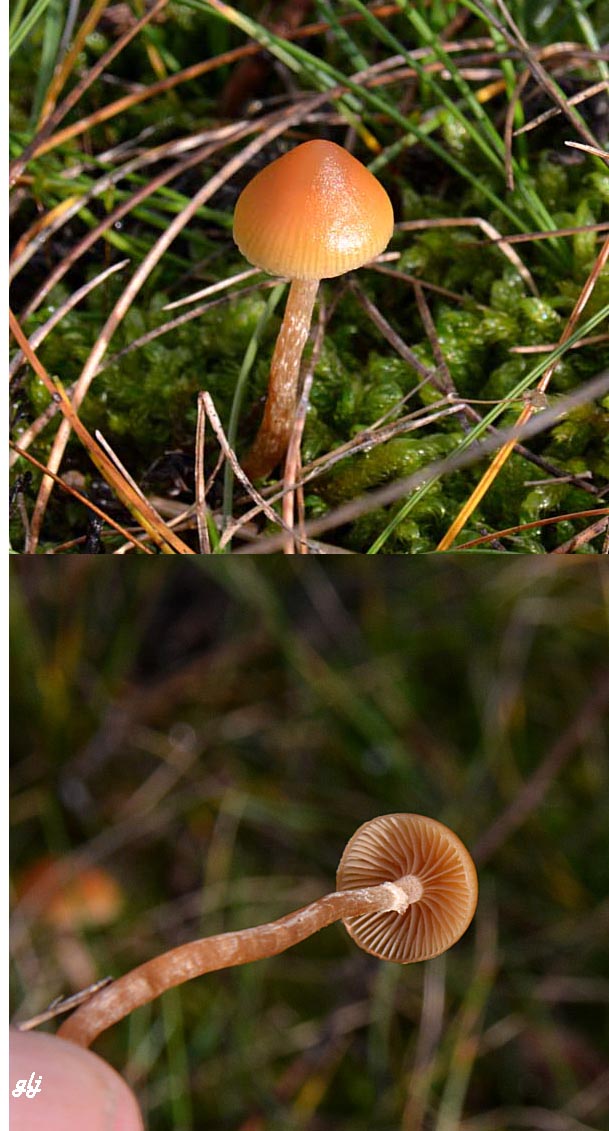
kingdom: Fungi
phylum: Basidiomycota
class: Agaricomycetes
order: Agaricales
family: Hymenogastraceae
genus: Galerina
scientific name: Galerina marginata
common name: randbæltet hjelmhat
